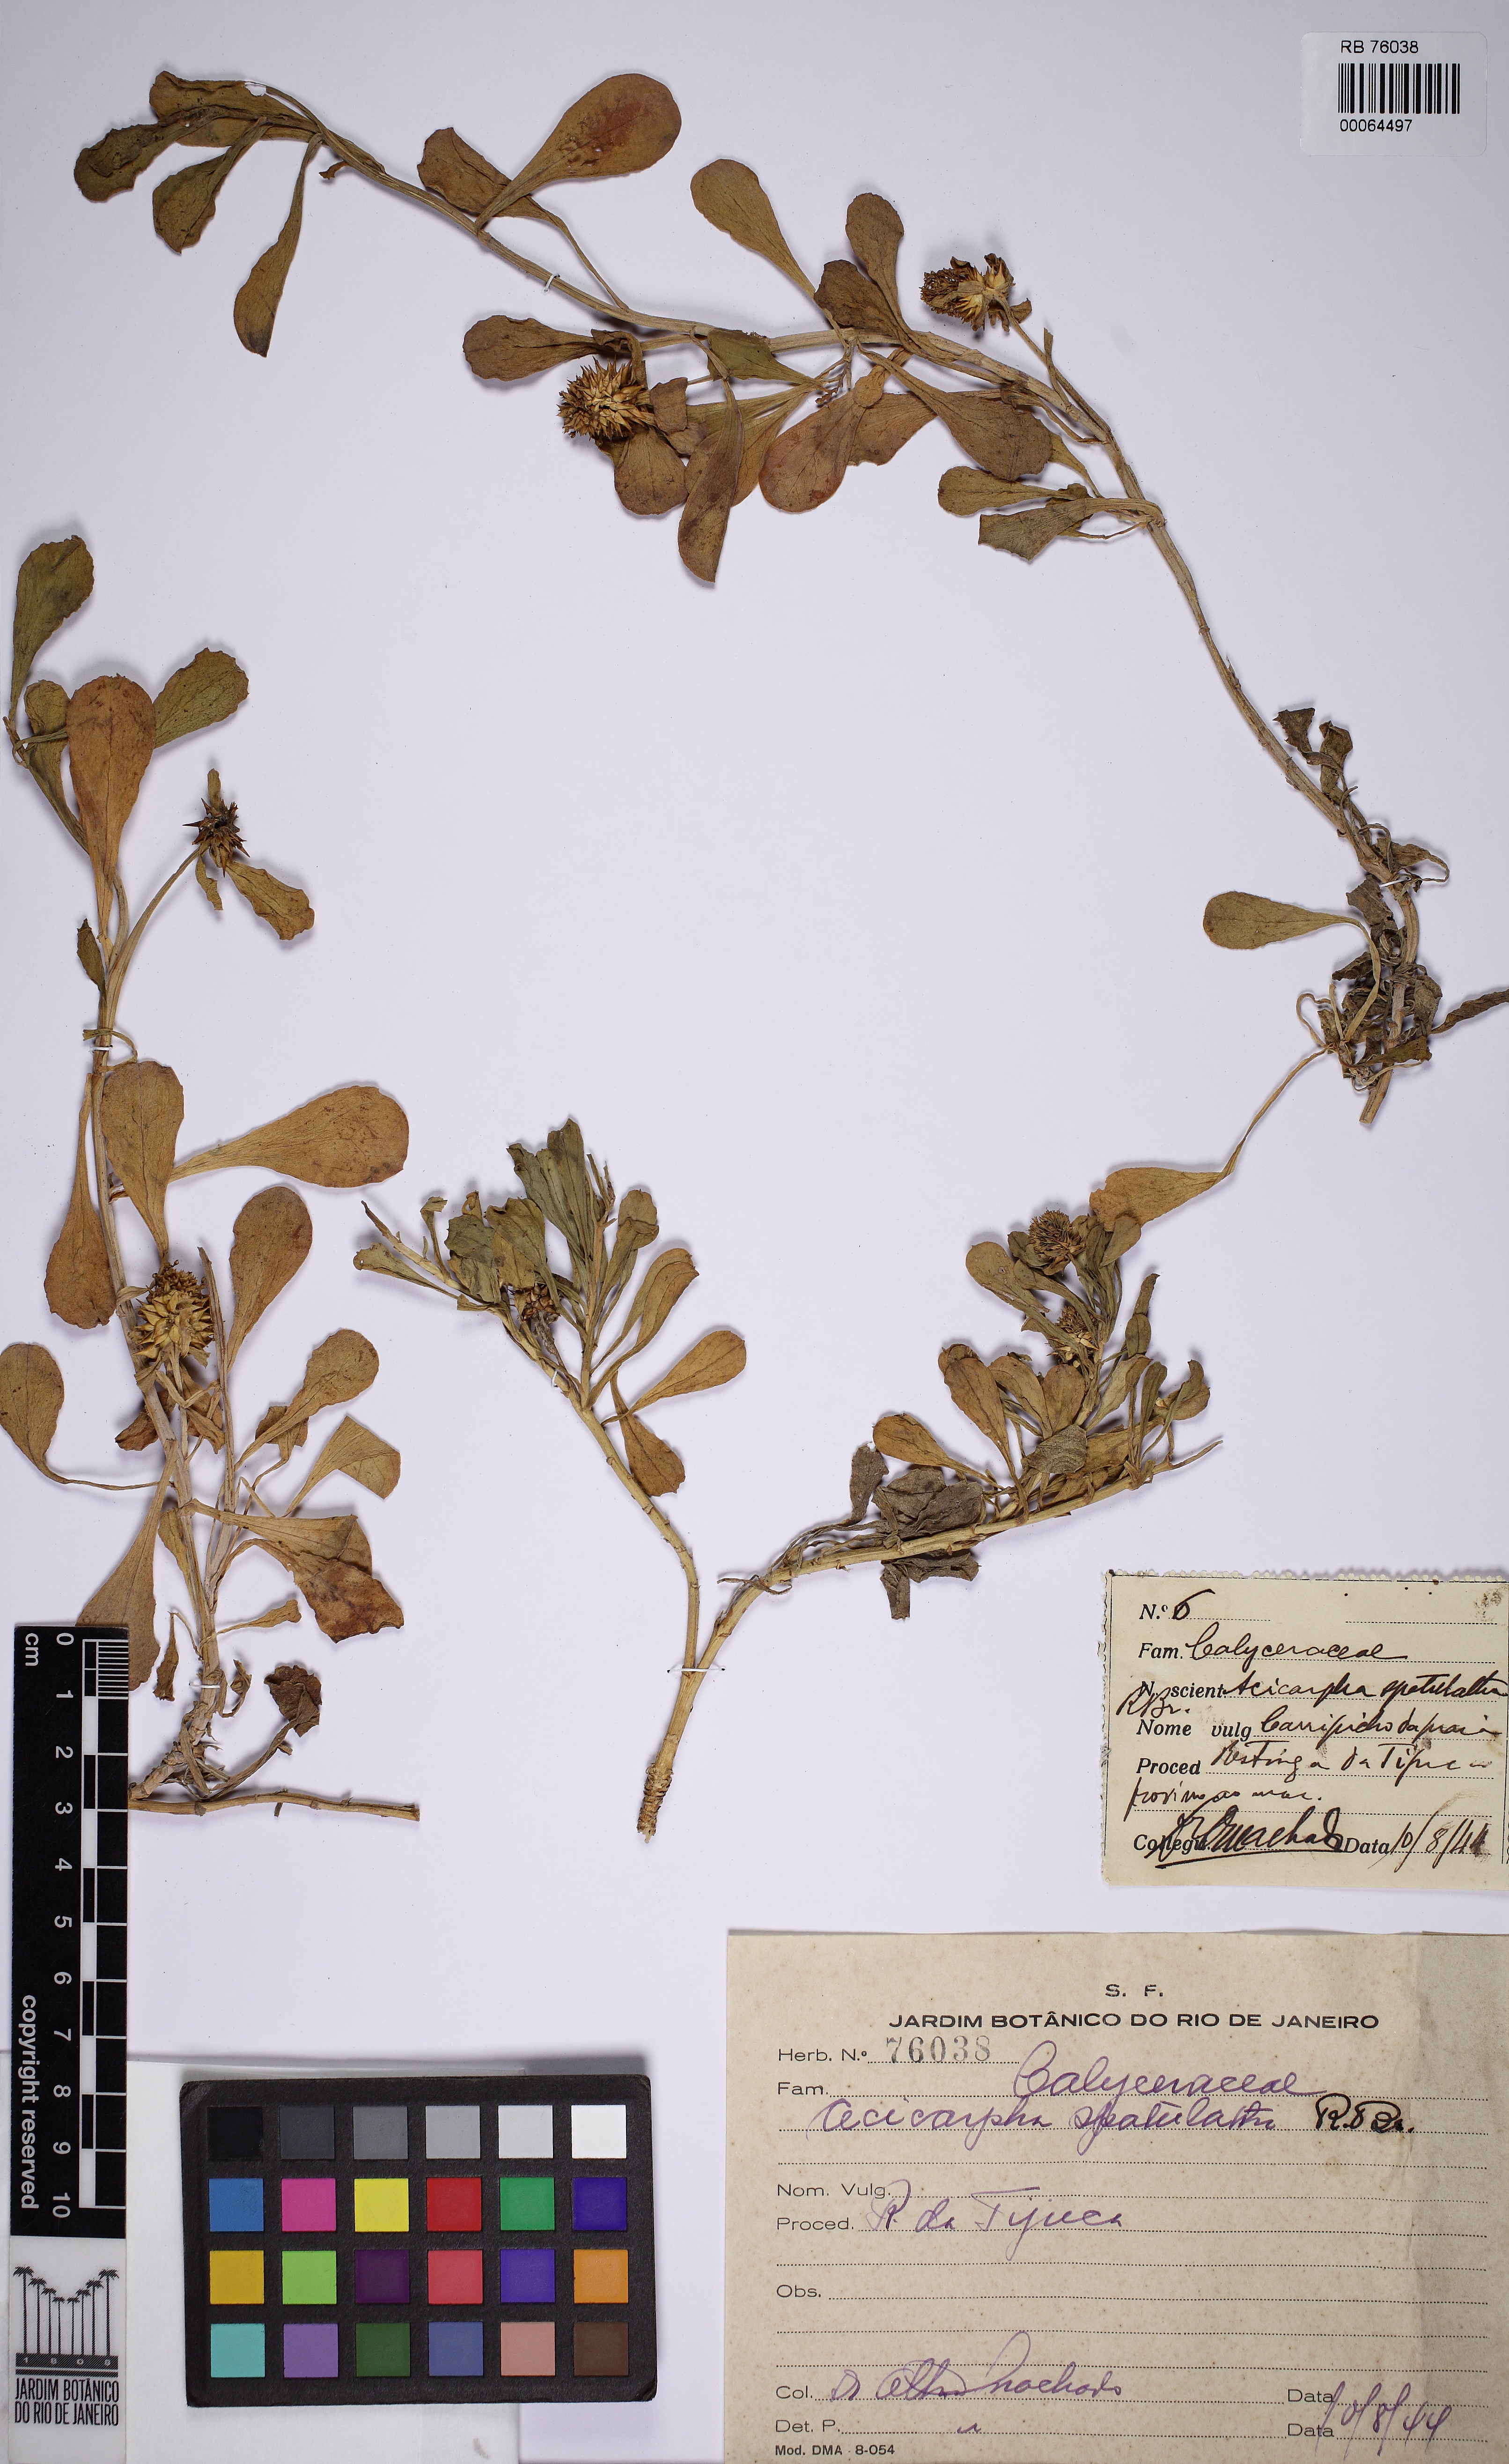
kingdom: Plantae
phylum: Tracheophyta
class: Magnoliopsida
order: Asterales
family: Calyceraceae
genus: Acicarpha
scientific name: Acicarpha spathulata
